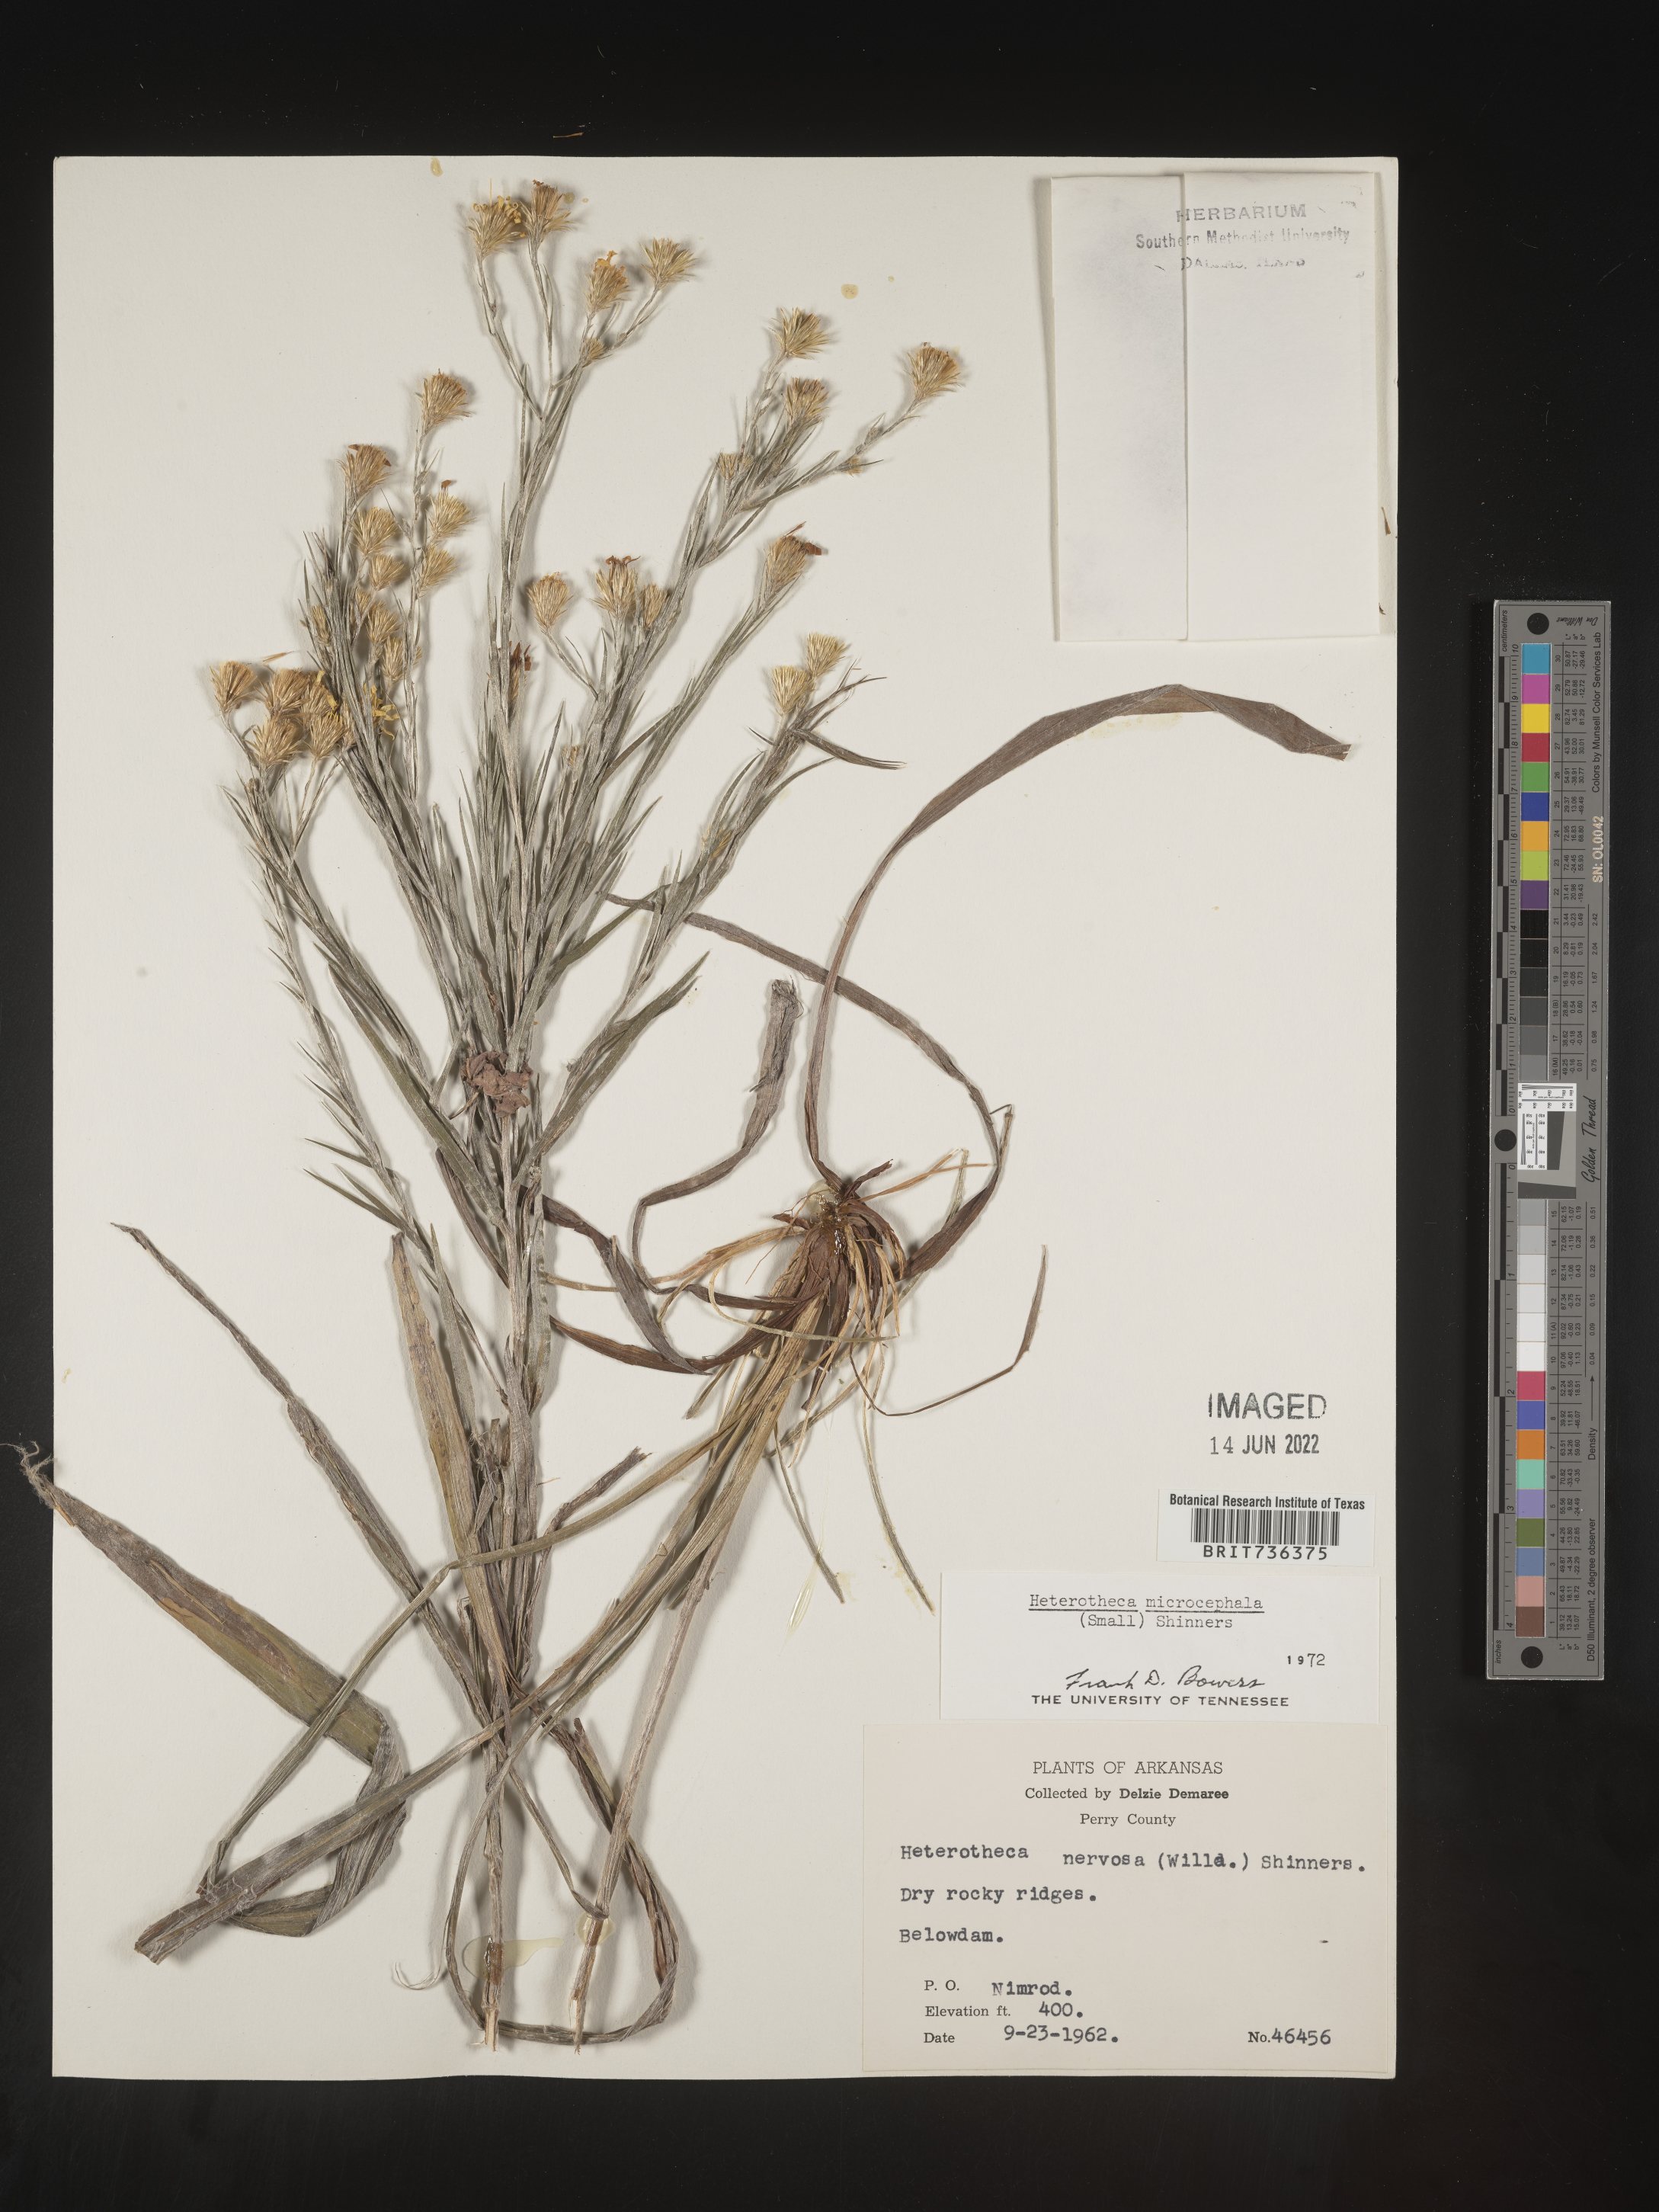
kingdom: Plantae
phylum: Tracheophyta
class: Magnoliopsida
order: Asterales
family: Asteraceae
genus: Pityopsis
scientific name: Pityopsis tenuifolia
